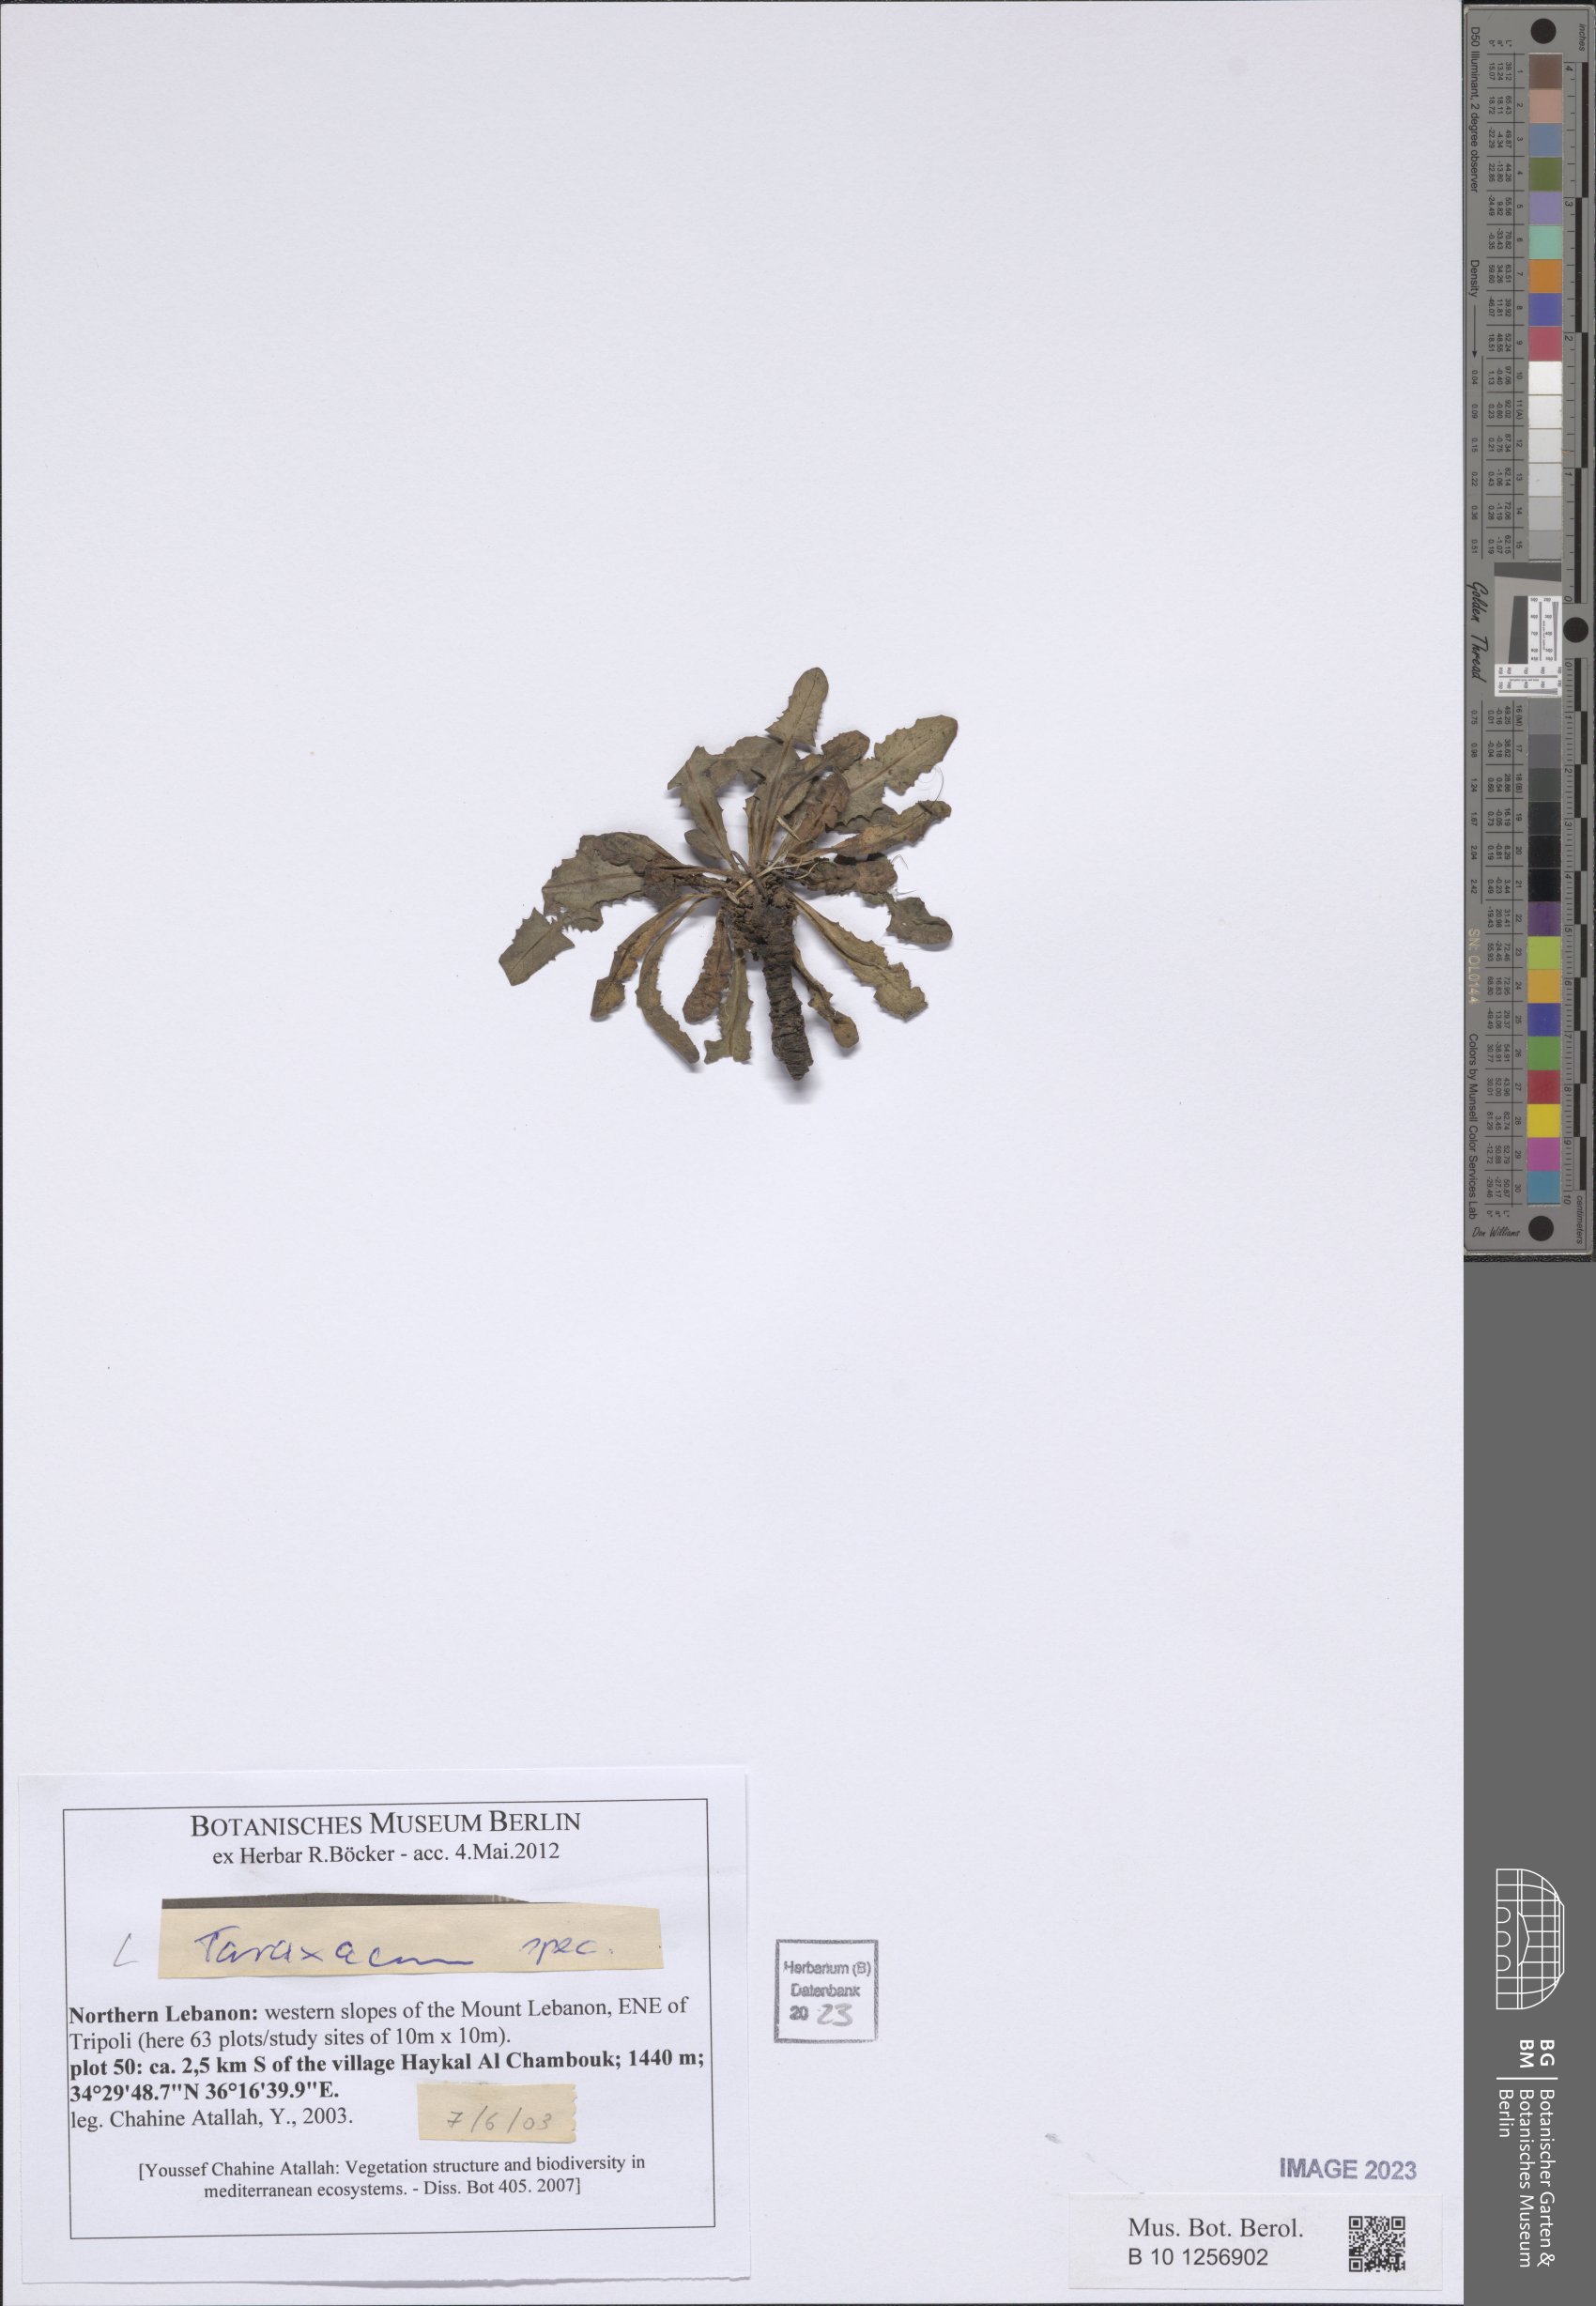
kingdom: Plantae
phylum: Tracheophyta
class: Magnoliopsida
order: Asterales
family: Asteraceae
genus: Taraxacum
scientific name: Taraxacum
